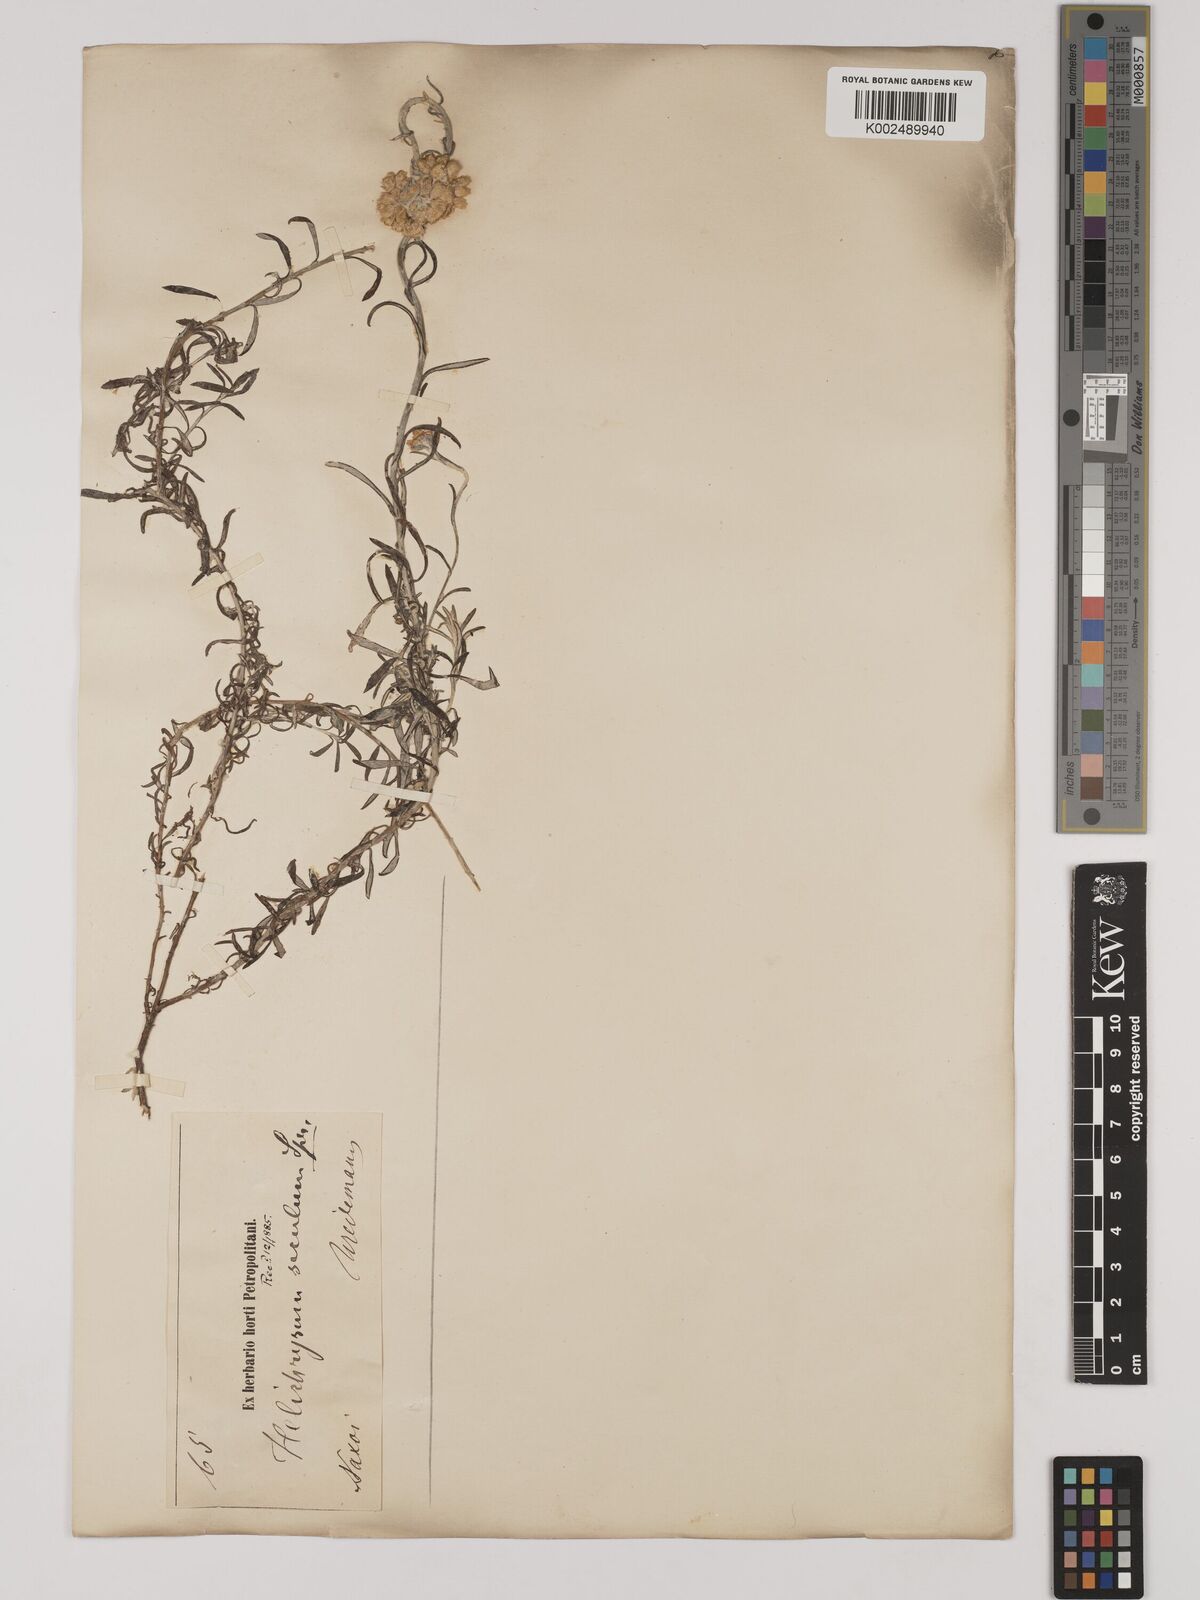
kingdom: Plantae
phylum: Tracheophyta
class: Magnoliopsida
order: Asterales
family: Asteraceae
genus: Helichrysum
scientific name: Helichrysum stoechas
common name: Goldilocks
